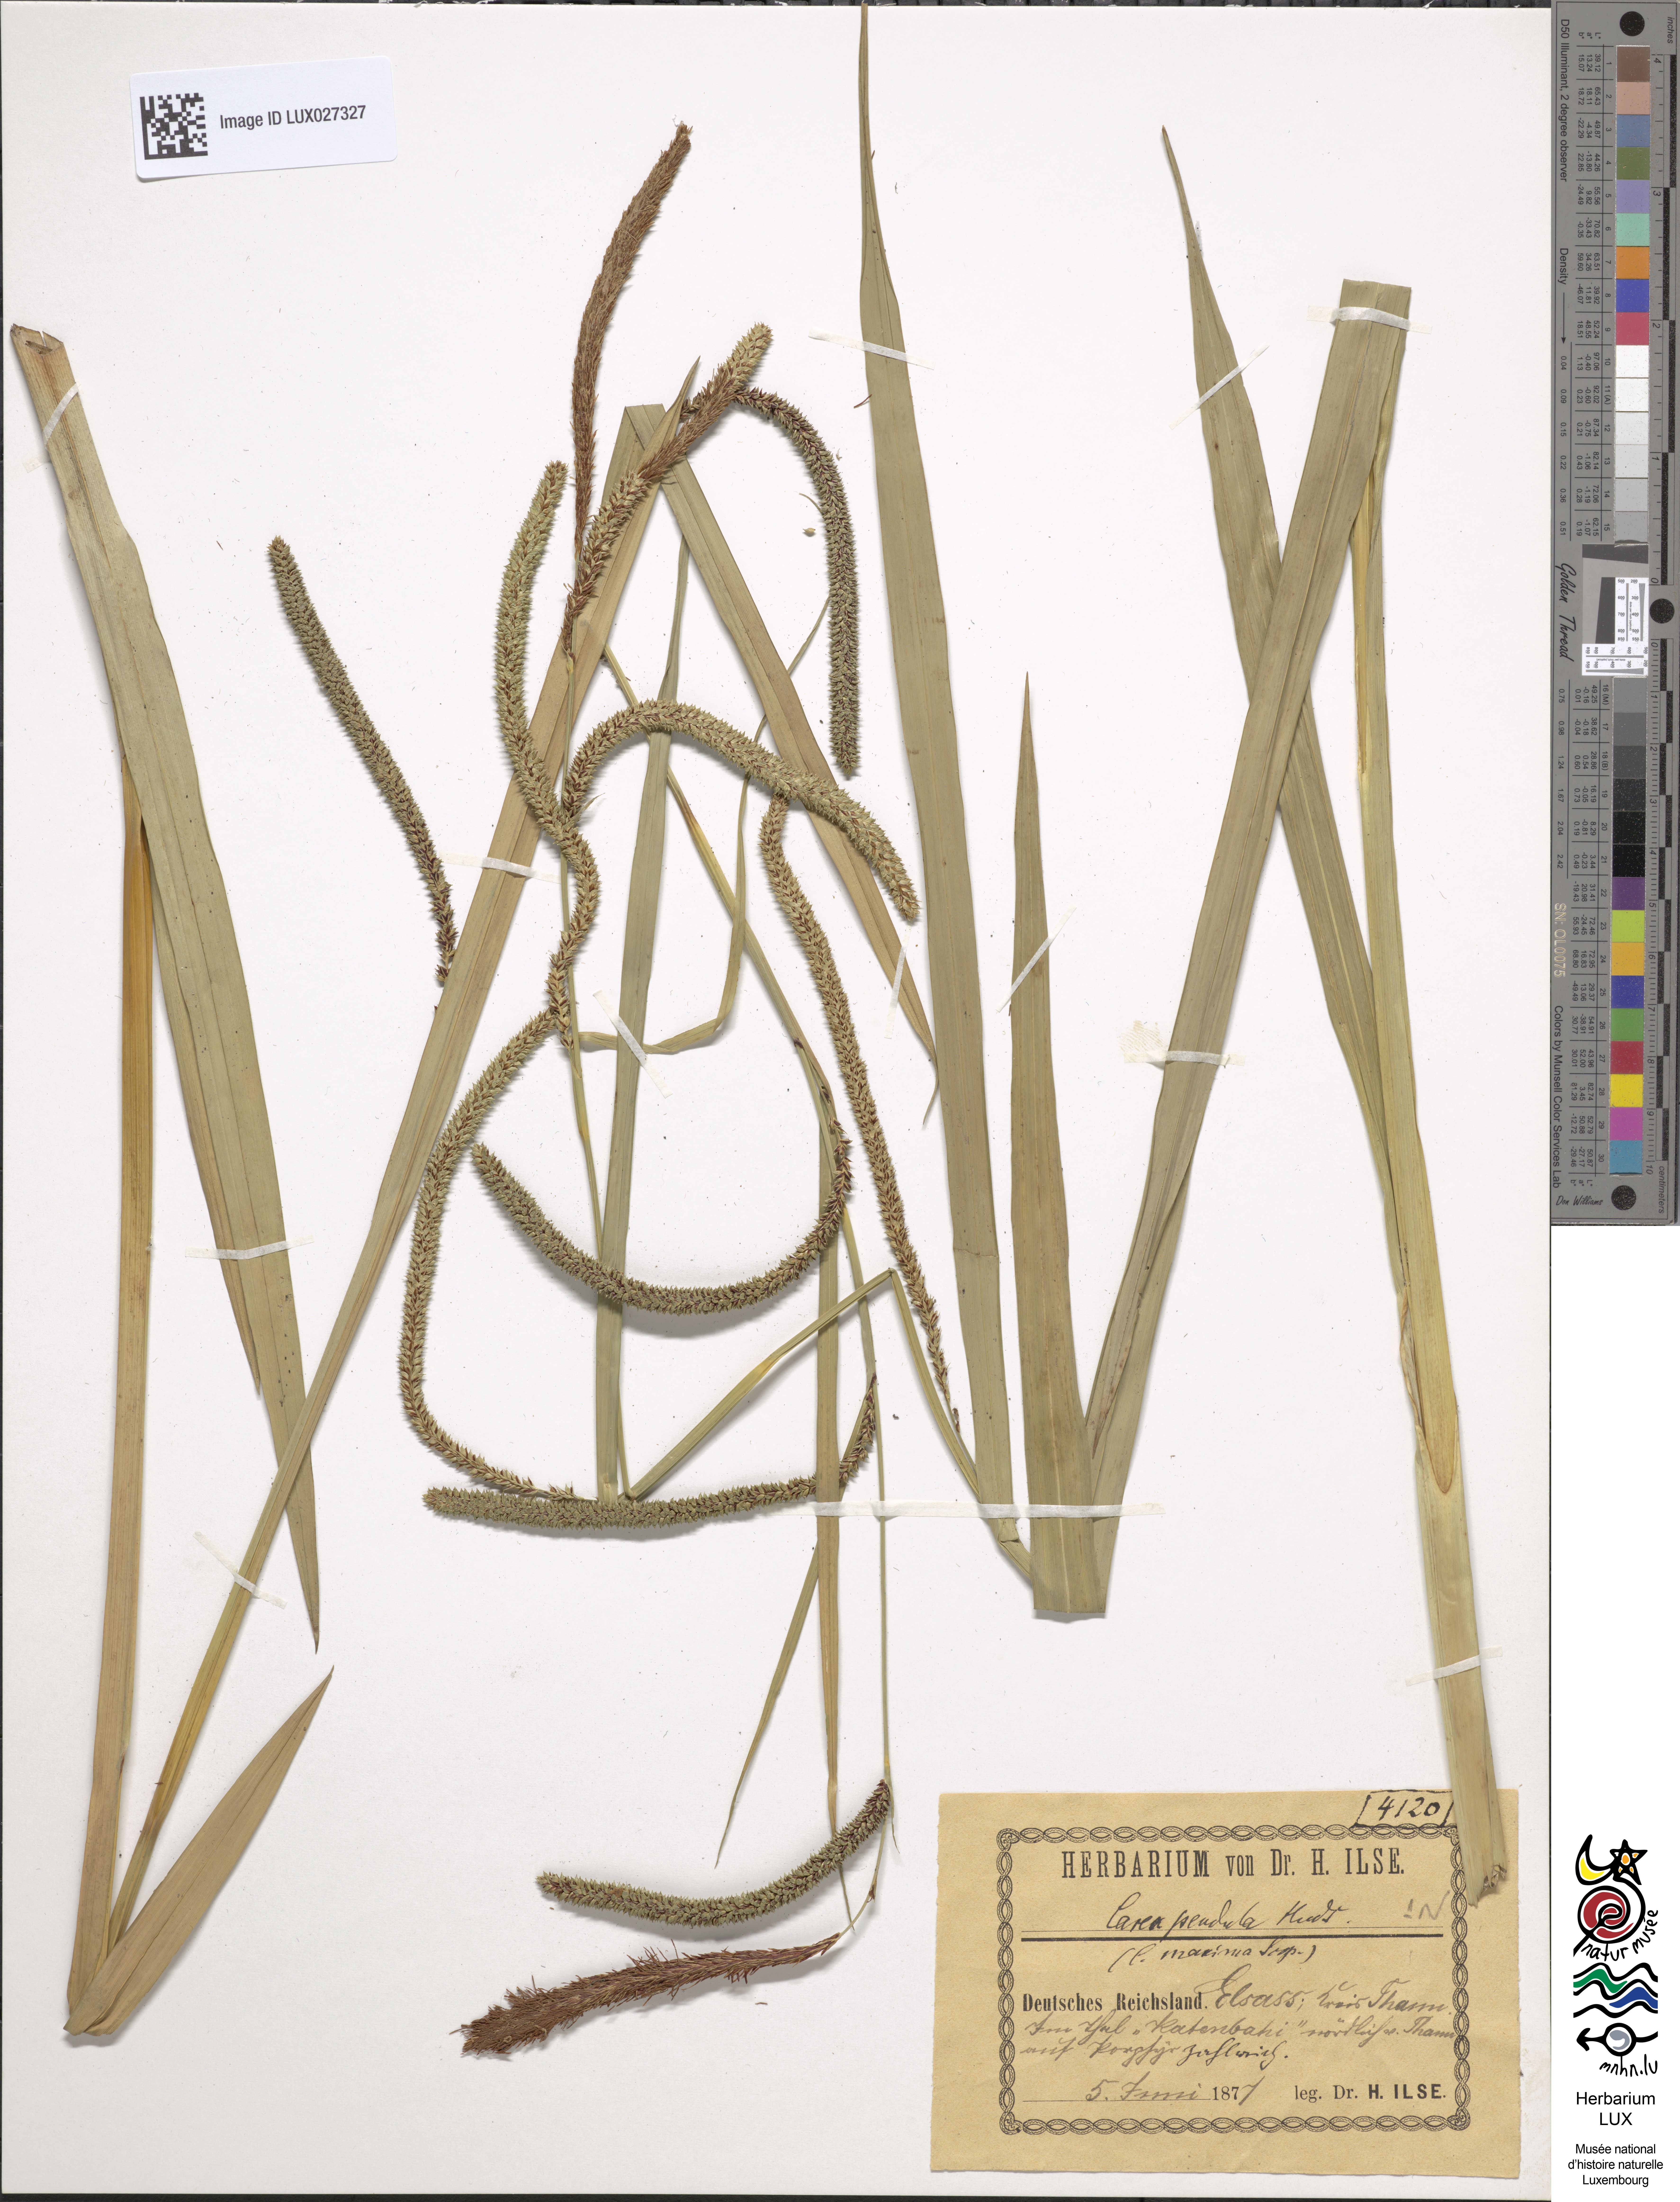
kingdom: Plantae
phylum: Tracheophyta
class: Liliopsida
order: Poales
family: Cyperaceae
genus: Carex
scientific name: Carex pendula
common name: Pendulous sedge
